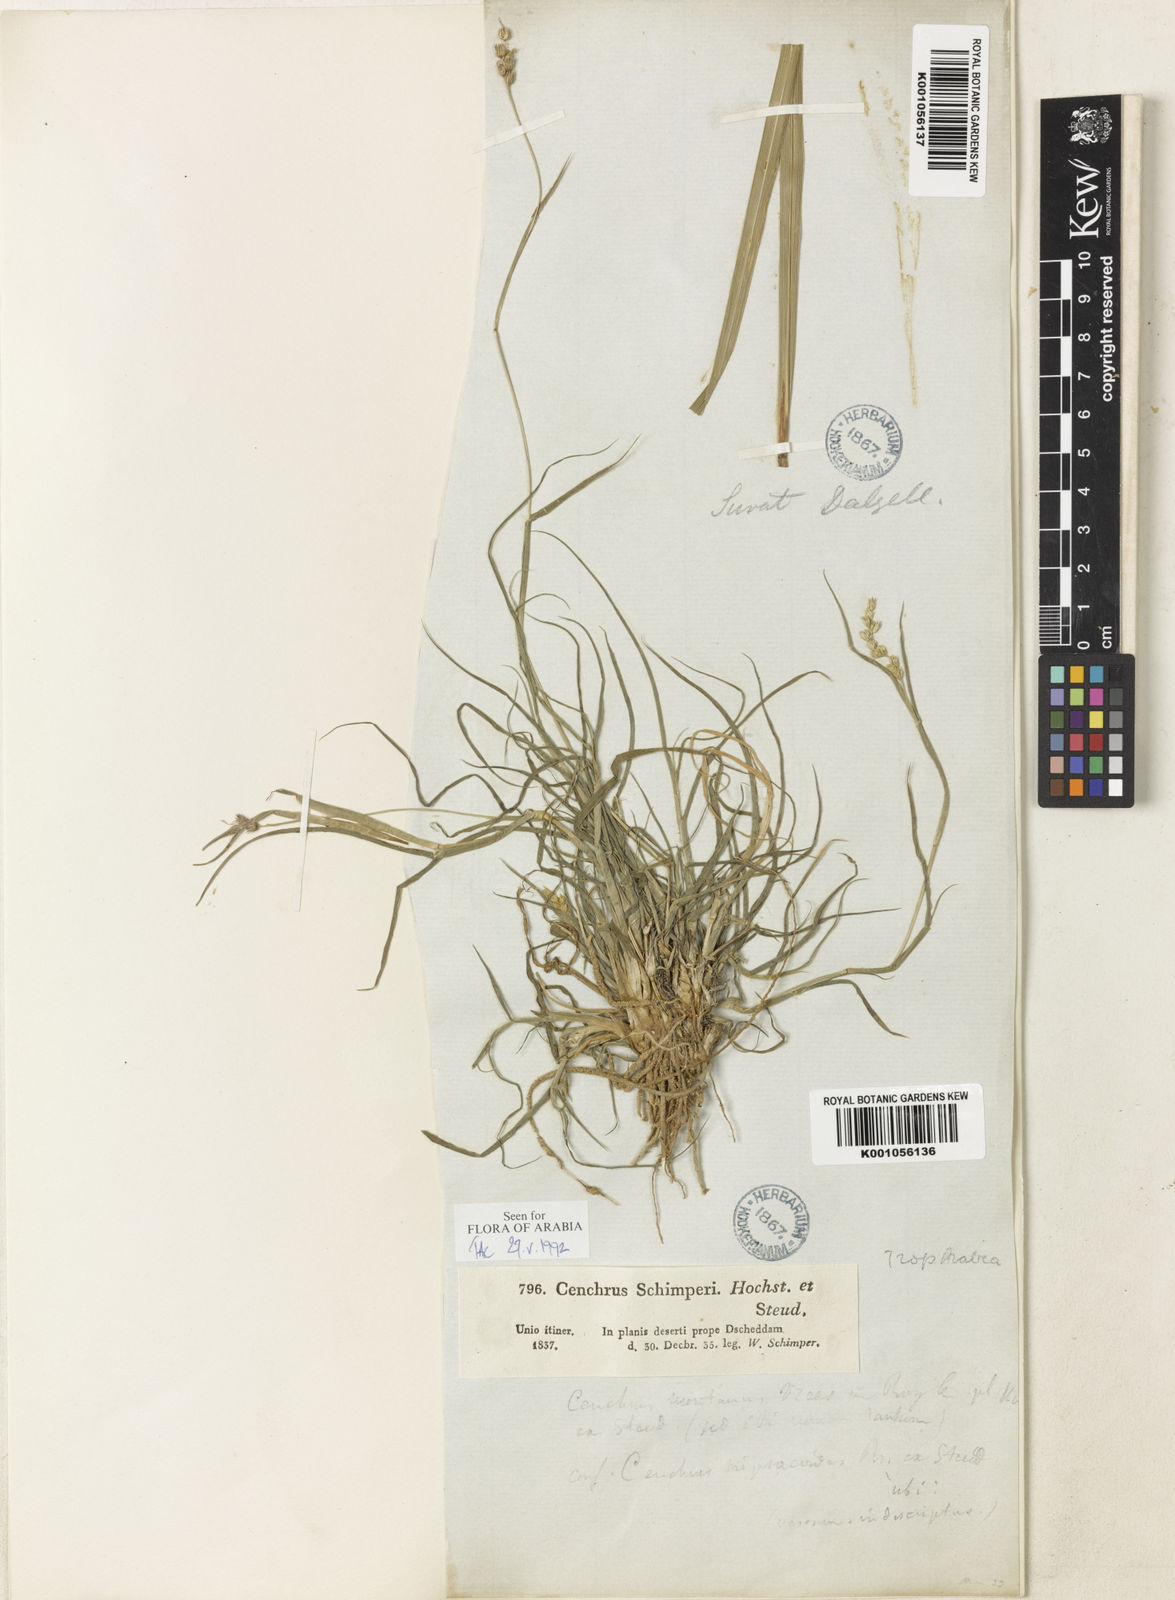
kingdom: Plantae
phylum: Tracheophyta
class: Liliopsida
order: Poales
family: Poaceae
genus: Cenchrus
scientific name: Cenchrus
